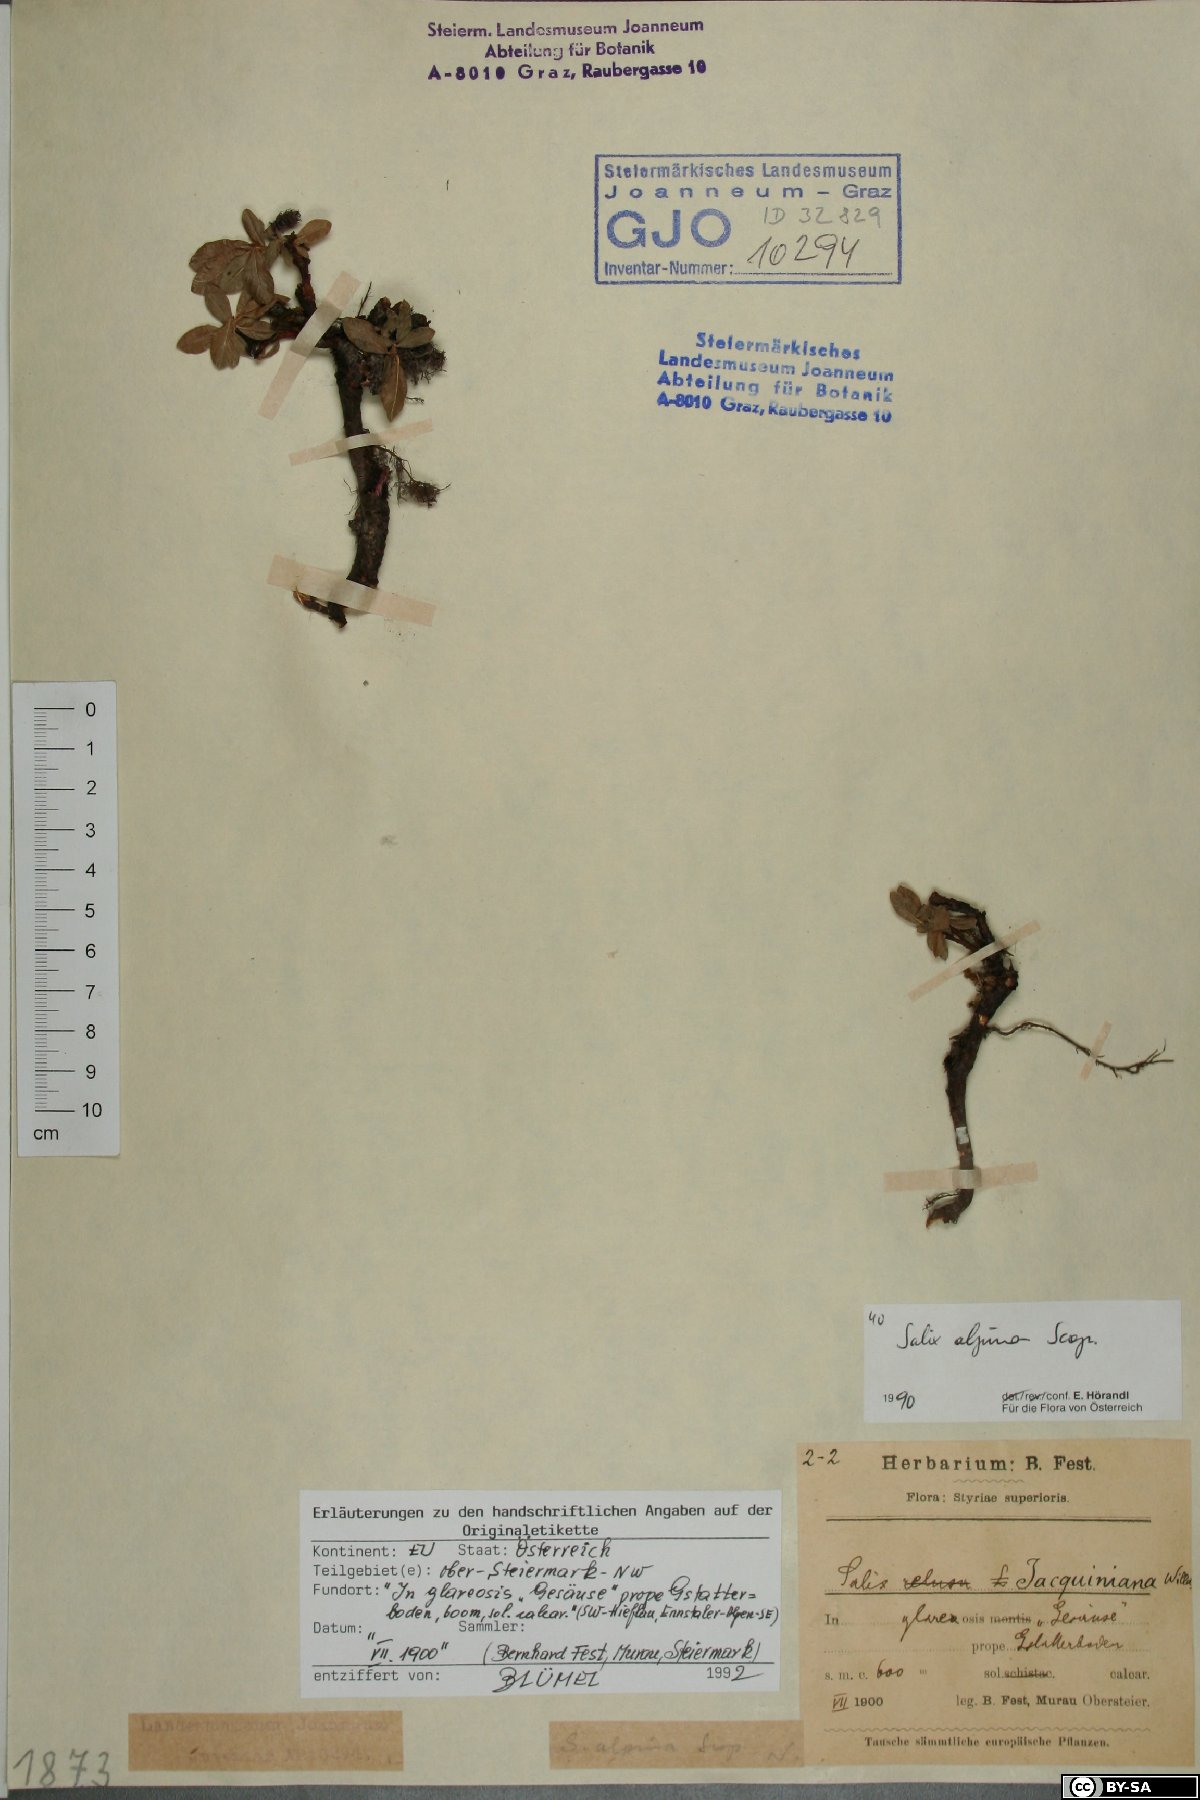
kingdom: Plantae
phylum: Tracheophyta
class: Magnoliopsida
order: Malpighiales
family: Salicaceae
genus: Salix
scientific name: Salix alpina
